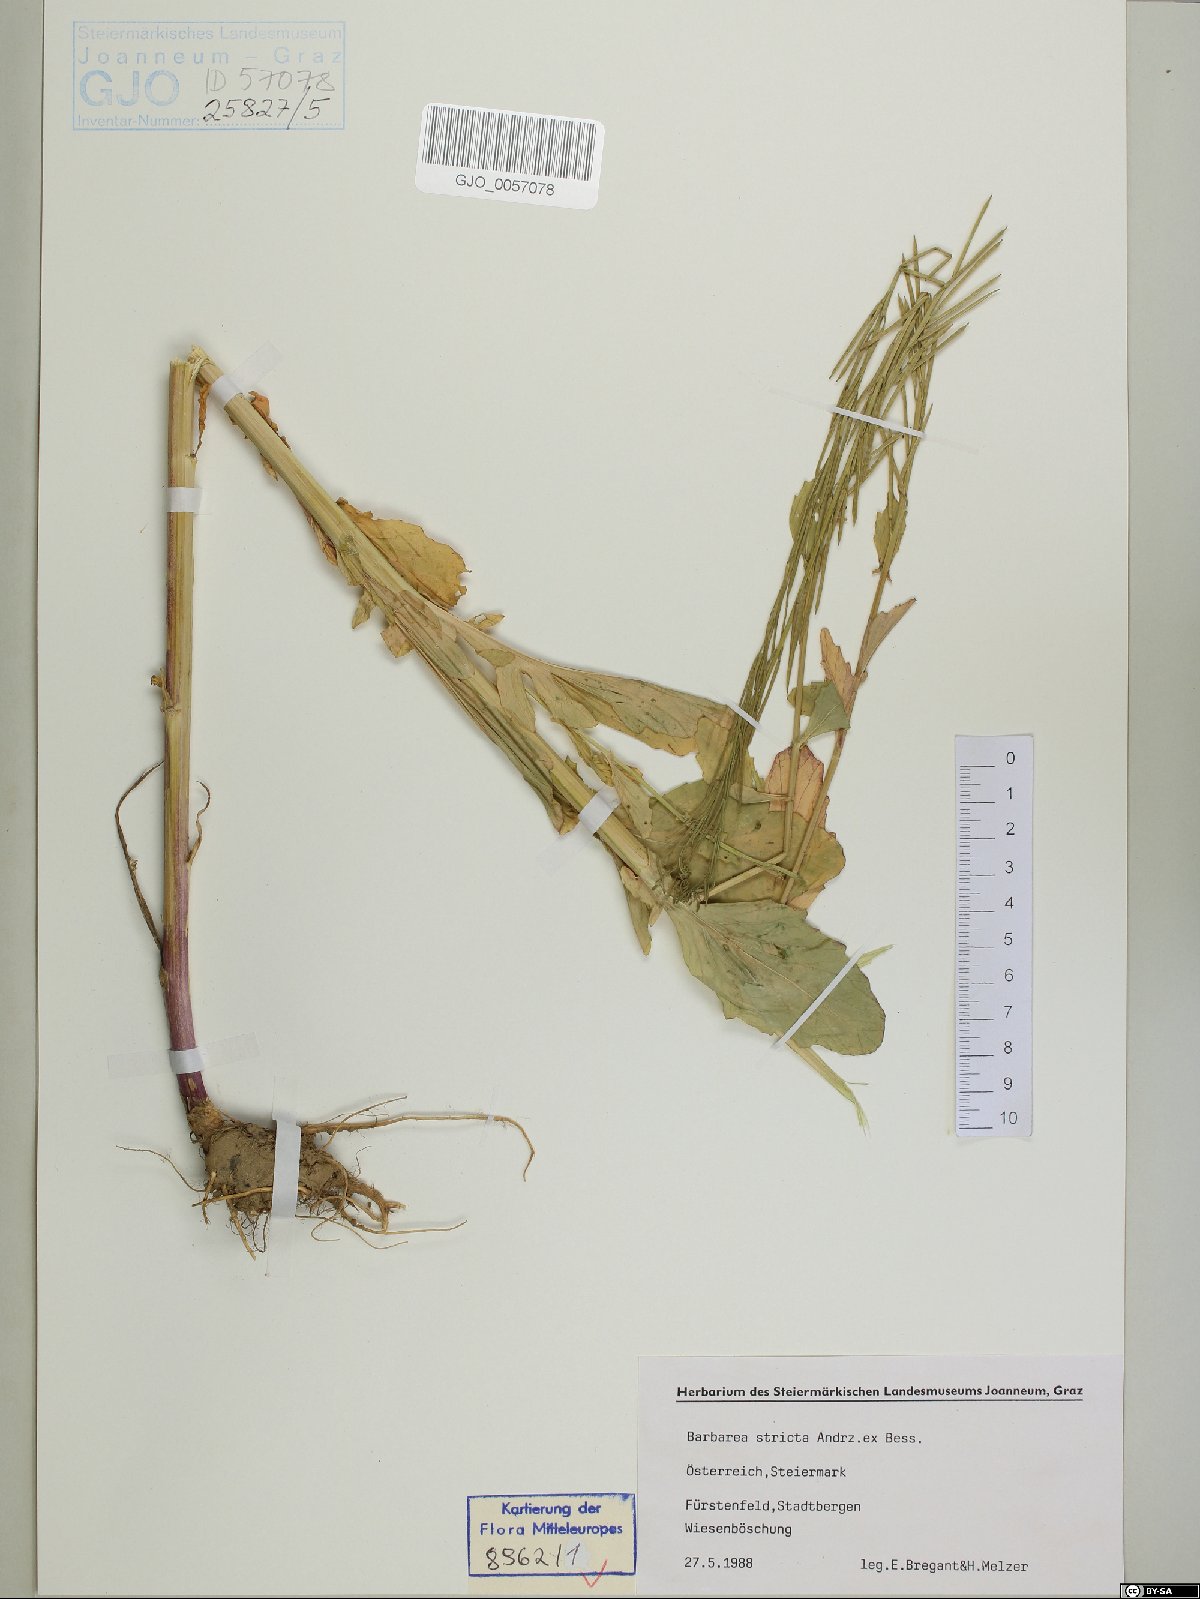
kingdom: Plantae
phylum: Tracheophyta
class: Magnoliopsida
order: Brassicales
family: Brassicaceae
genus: Barbarea
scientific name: Barbarea stricta
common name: Small-flowered winter-cress
